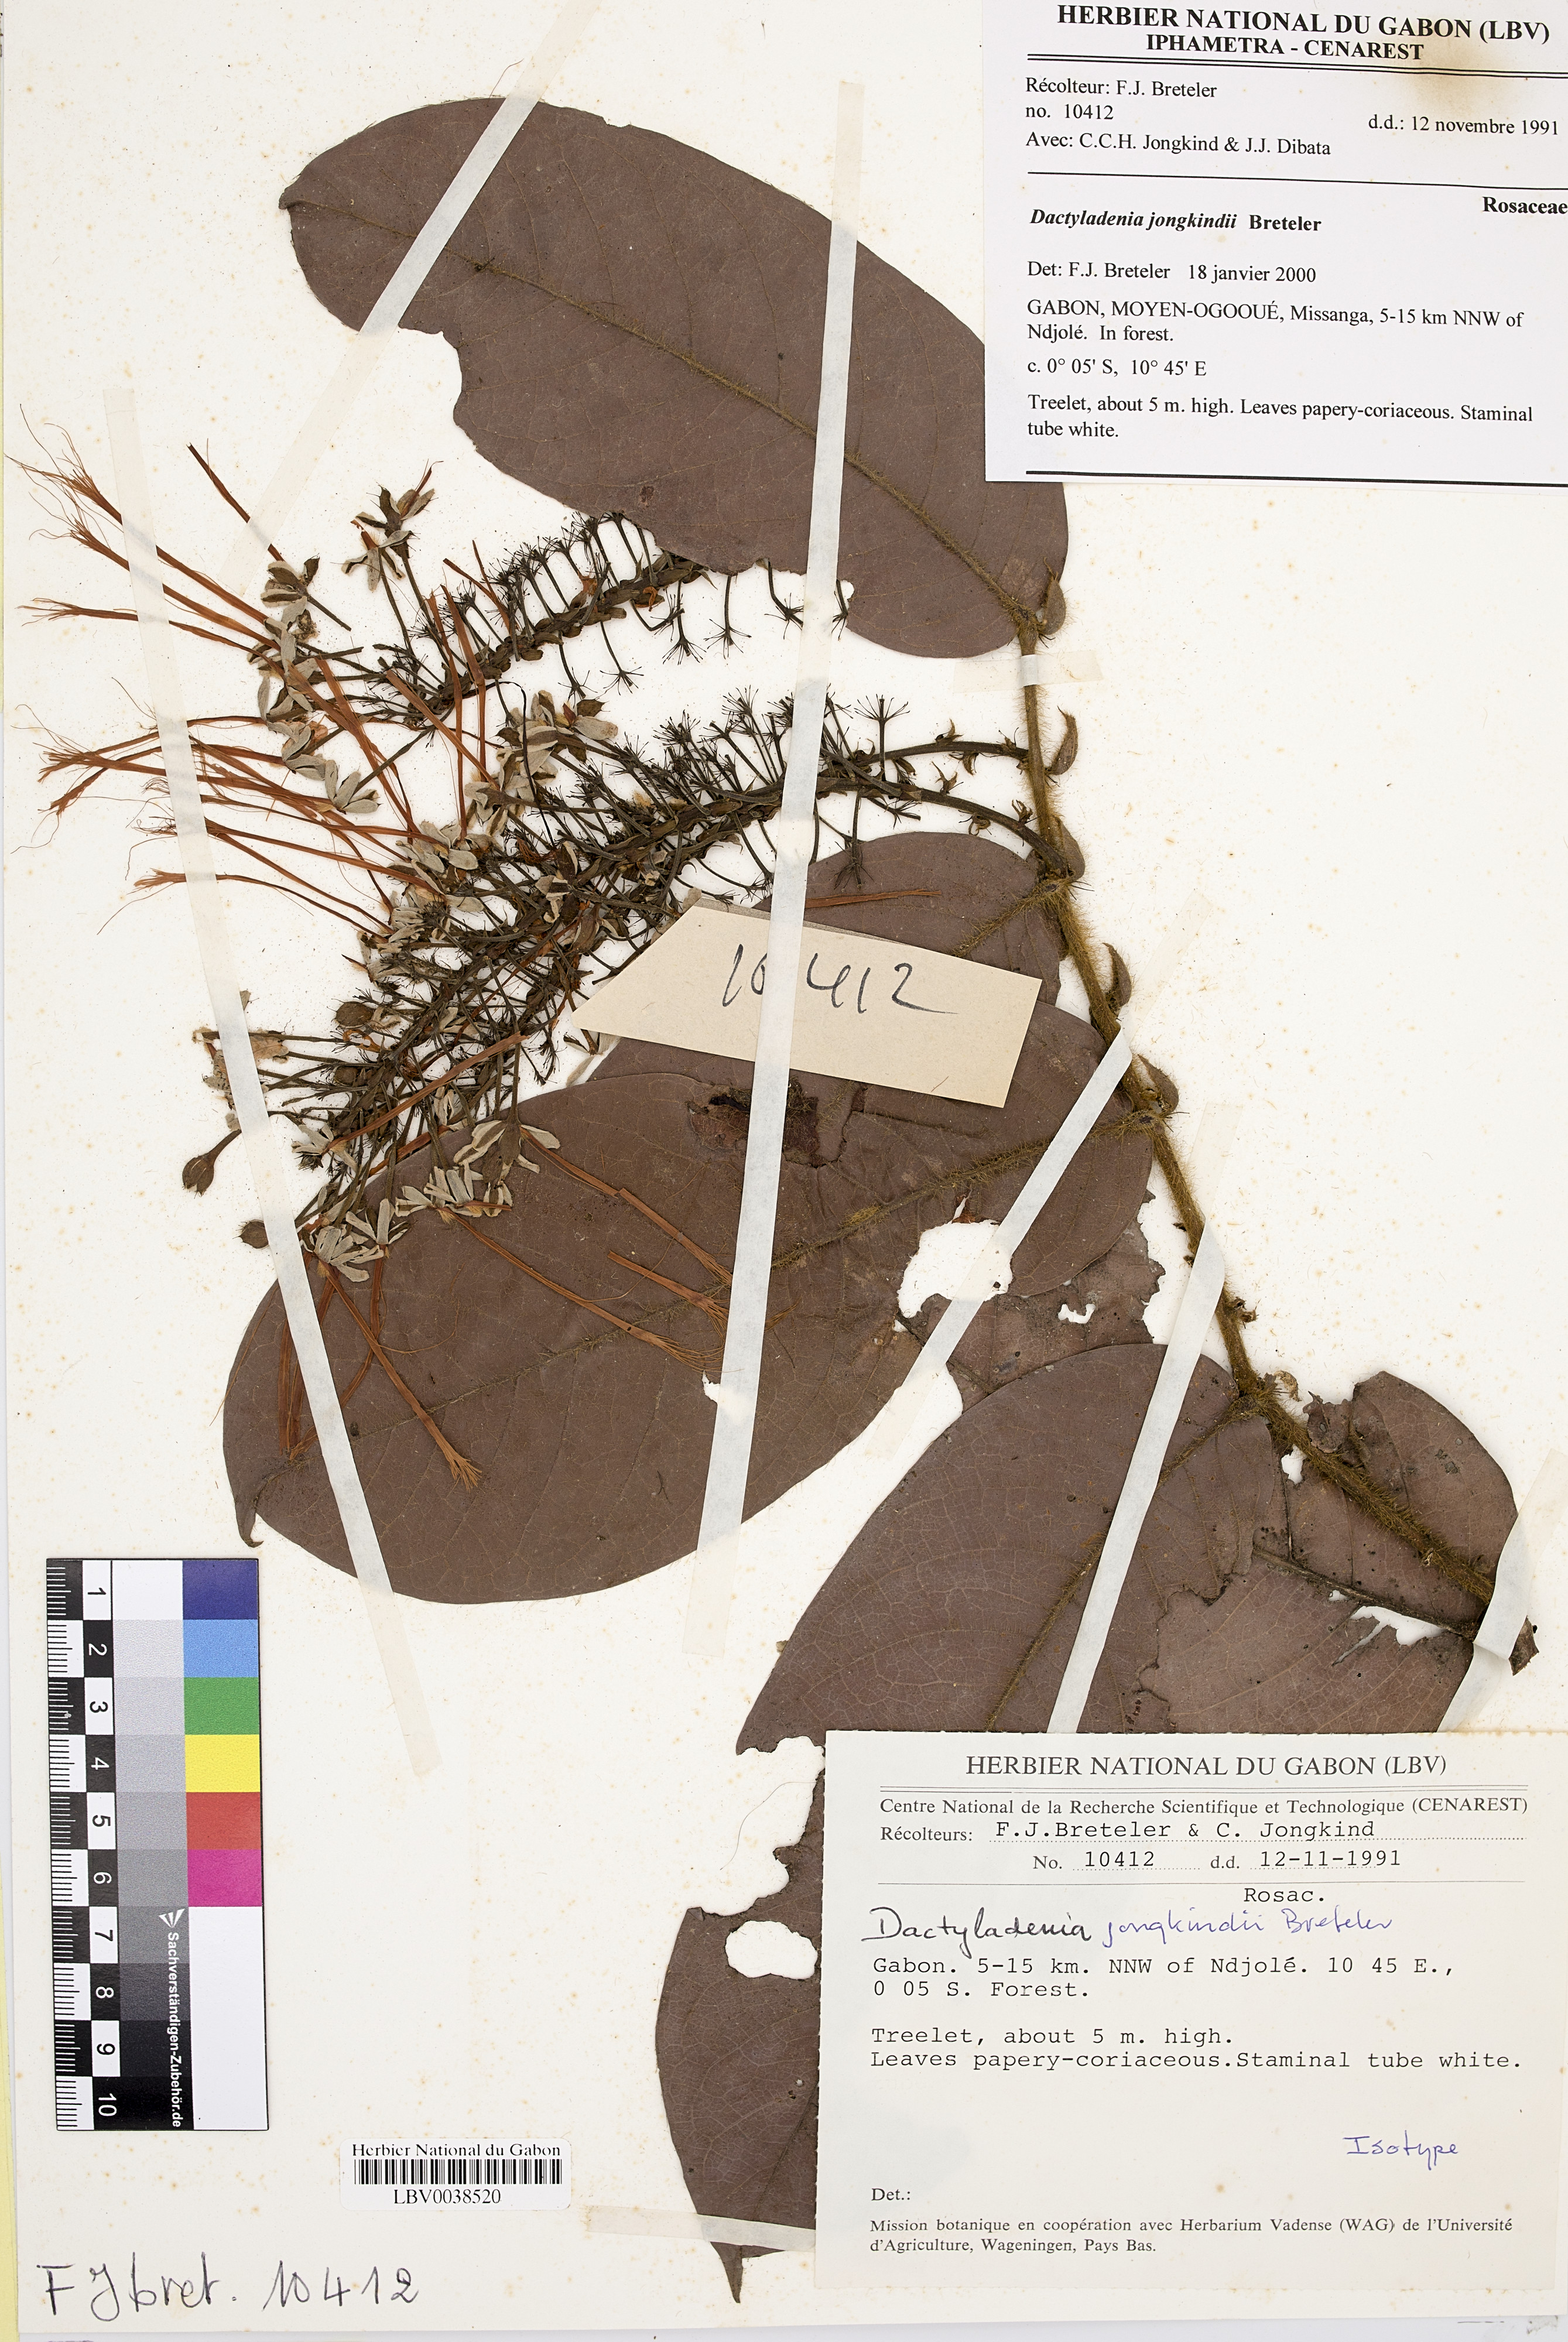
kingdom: Plantae
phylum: Tracheophyta
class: Magnoliopsida
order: Malpighiales
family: Chrysobalanaceae
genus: Dactyladenia
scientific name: Dactyladenia jongkindii
